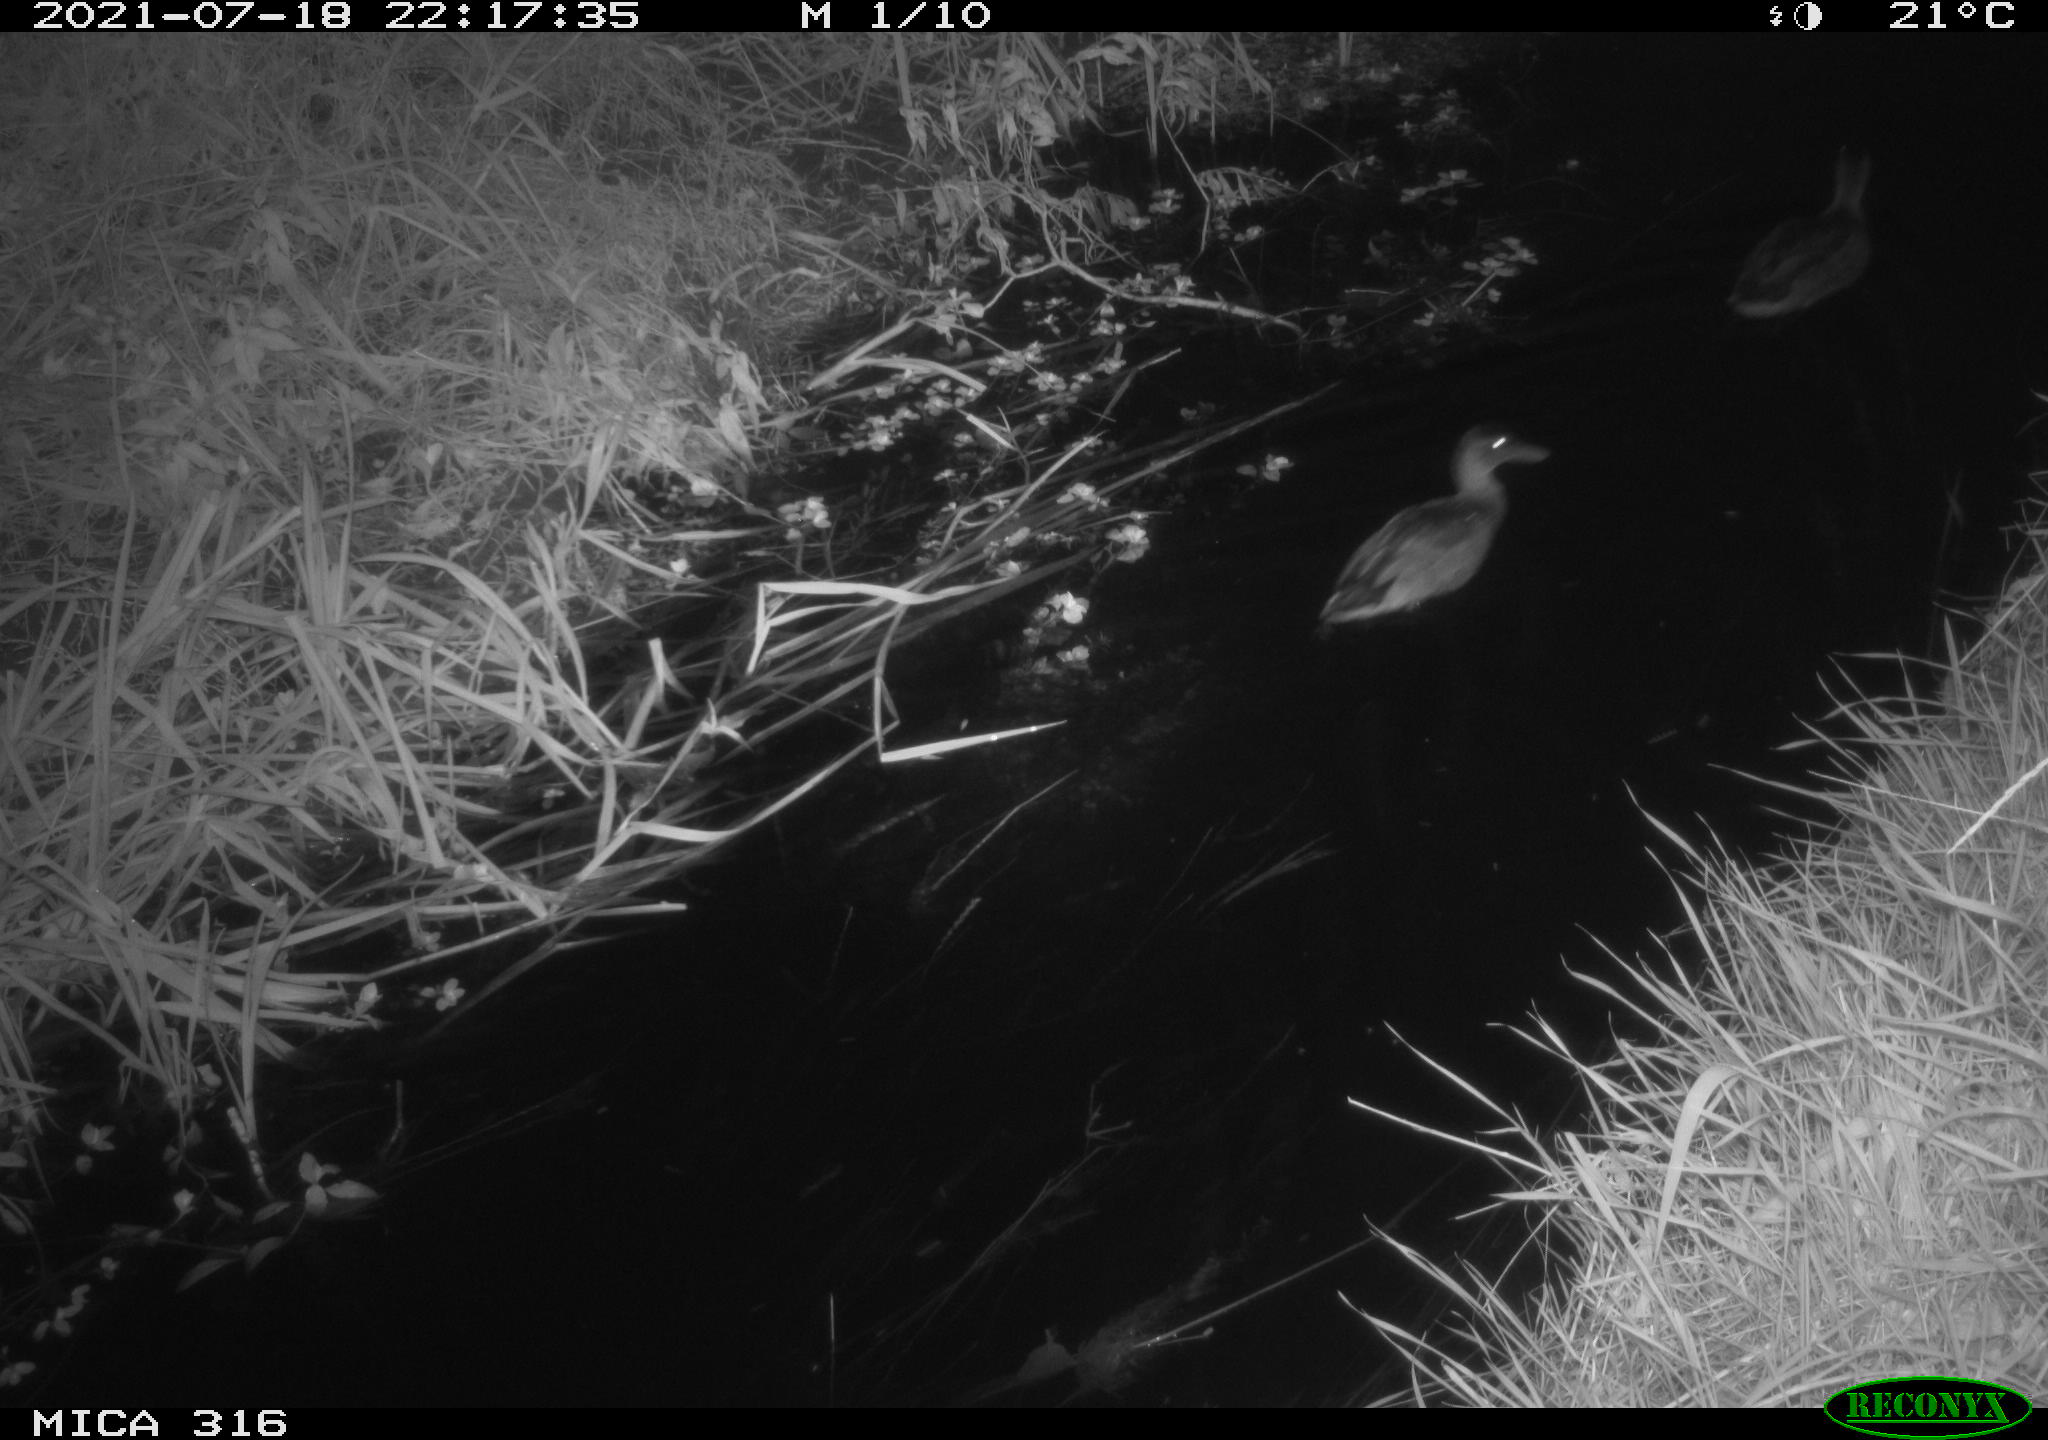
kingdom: Animalia
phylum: Chordata
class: Aves
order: Anseriformes
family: Anatidae
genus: Anas
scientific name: Anas platyrhynchos
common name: Mallard
